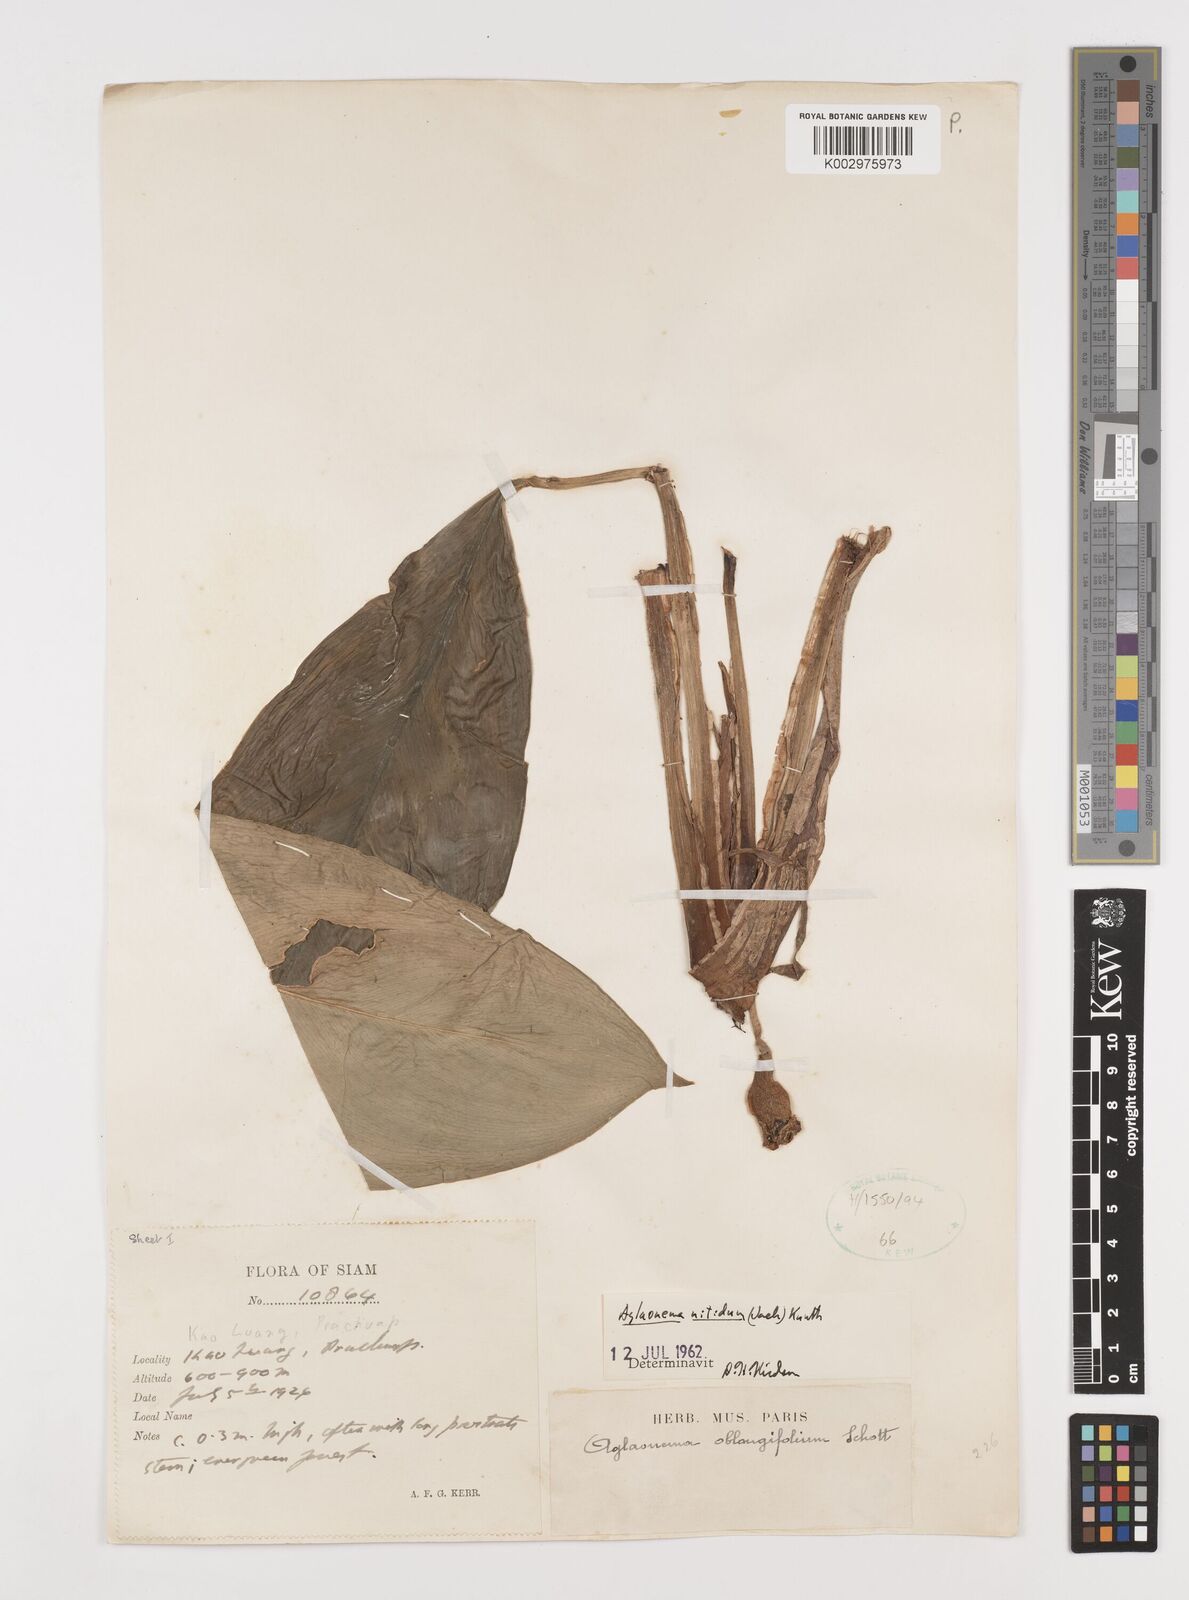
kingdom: Plantae
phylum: Tracheophyta
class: Liliopsida
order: Alismatales
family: Araceae
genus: Aglaonema
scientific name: Aglaonema nitidum
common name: Aglaonema aroid
